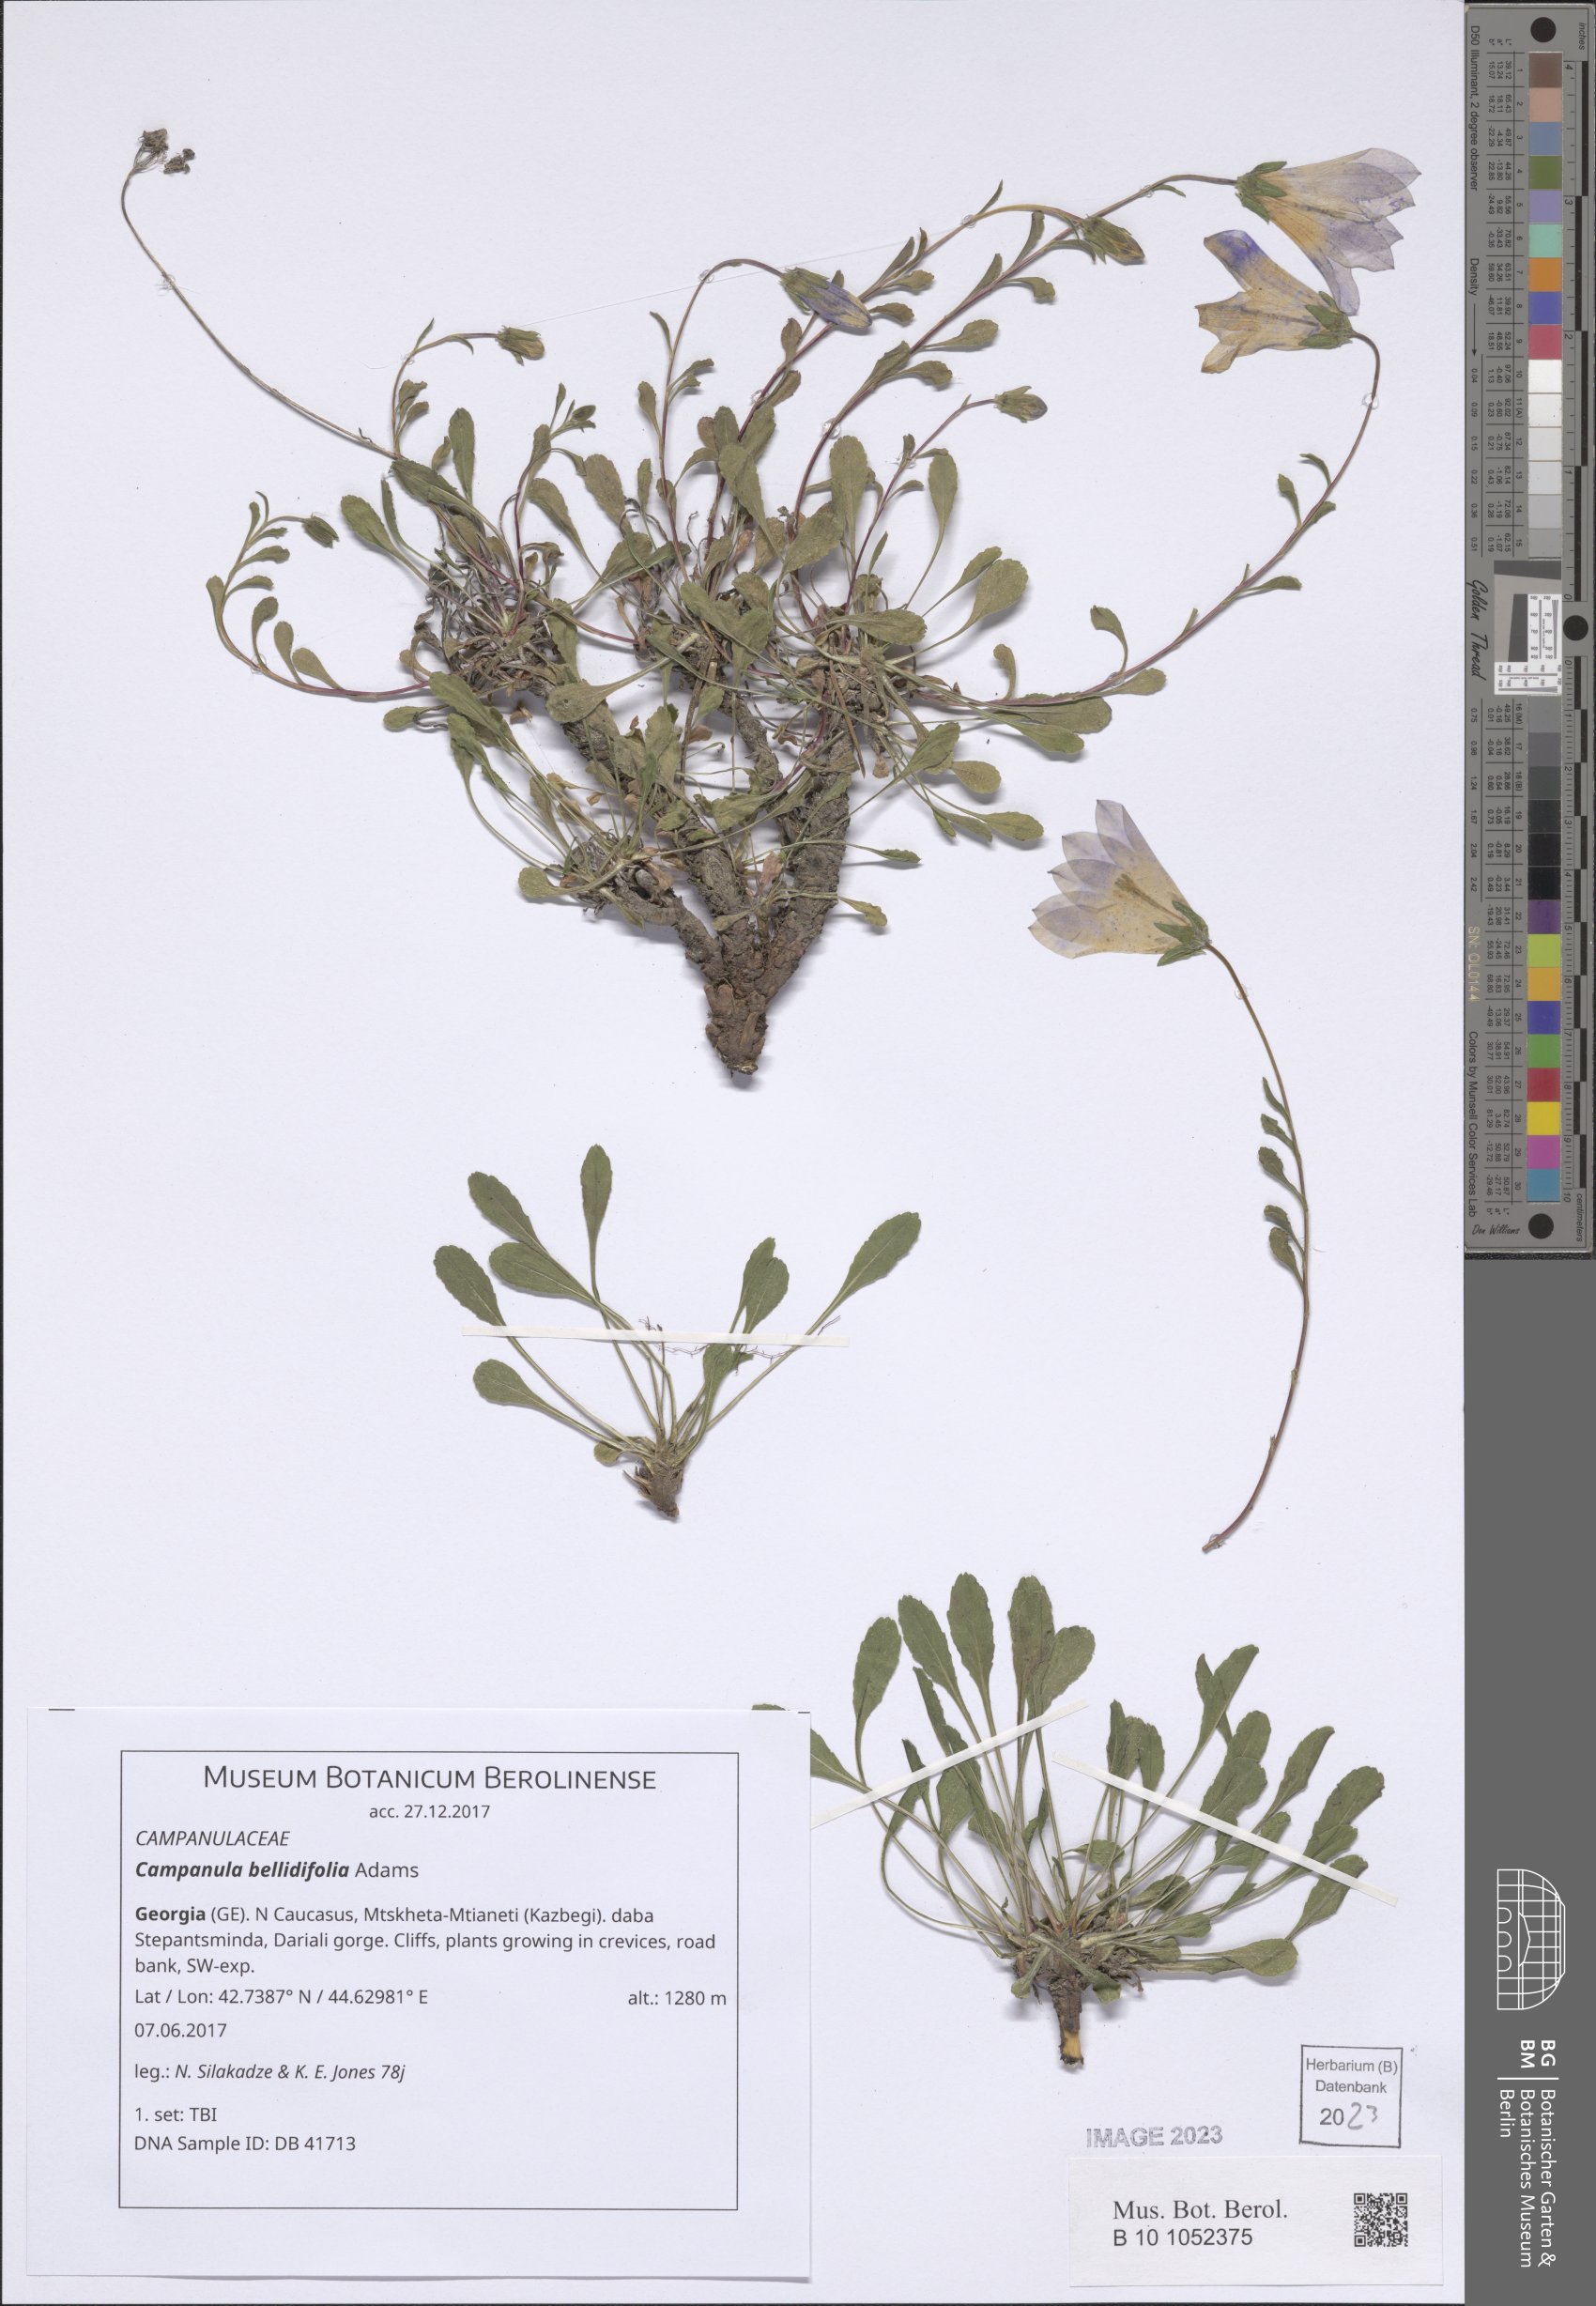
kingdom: Plantae
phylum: Tracheophyta
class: Magnoliopsida
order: Asterales
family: Campanulaceae
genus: Campanula
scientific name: Campanula bellidifolia
